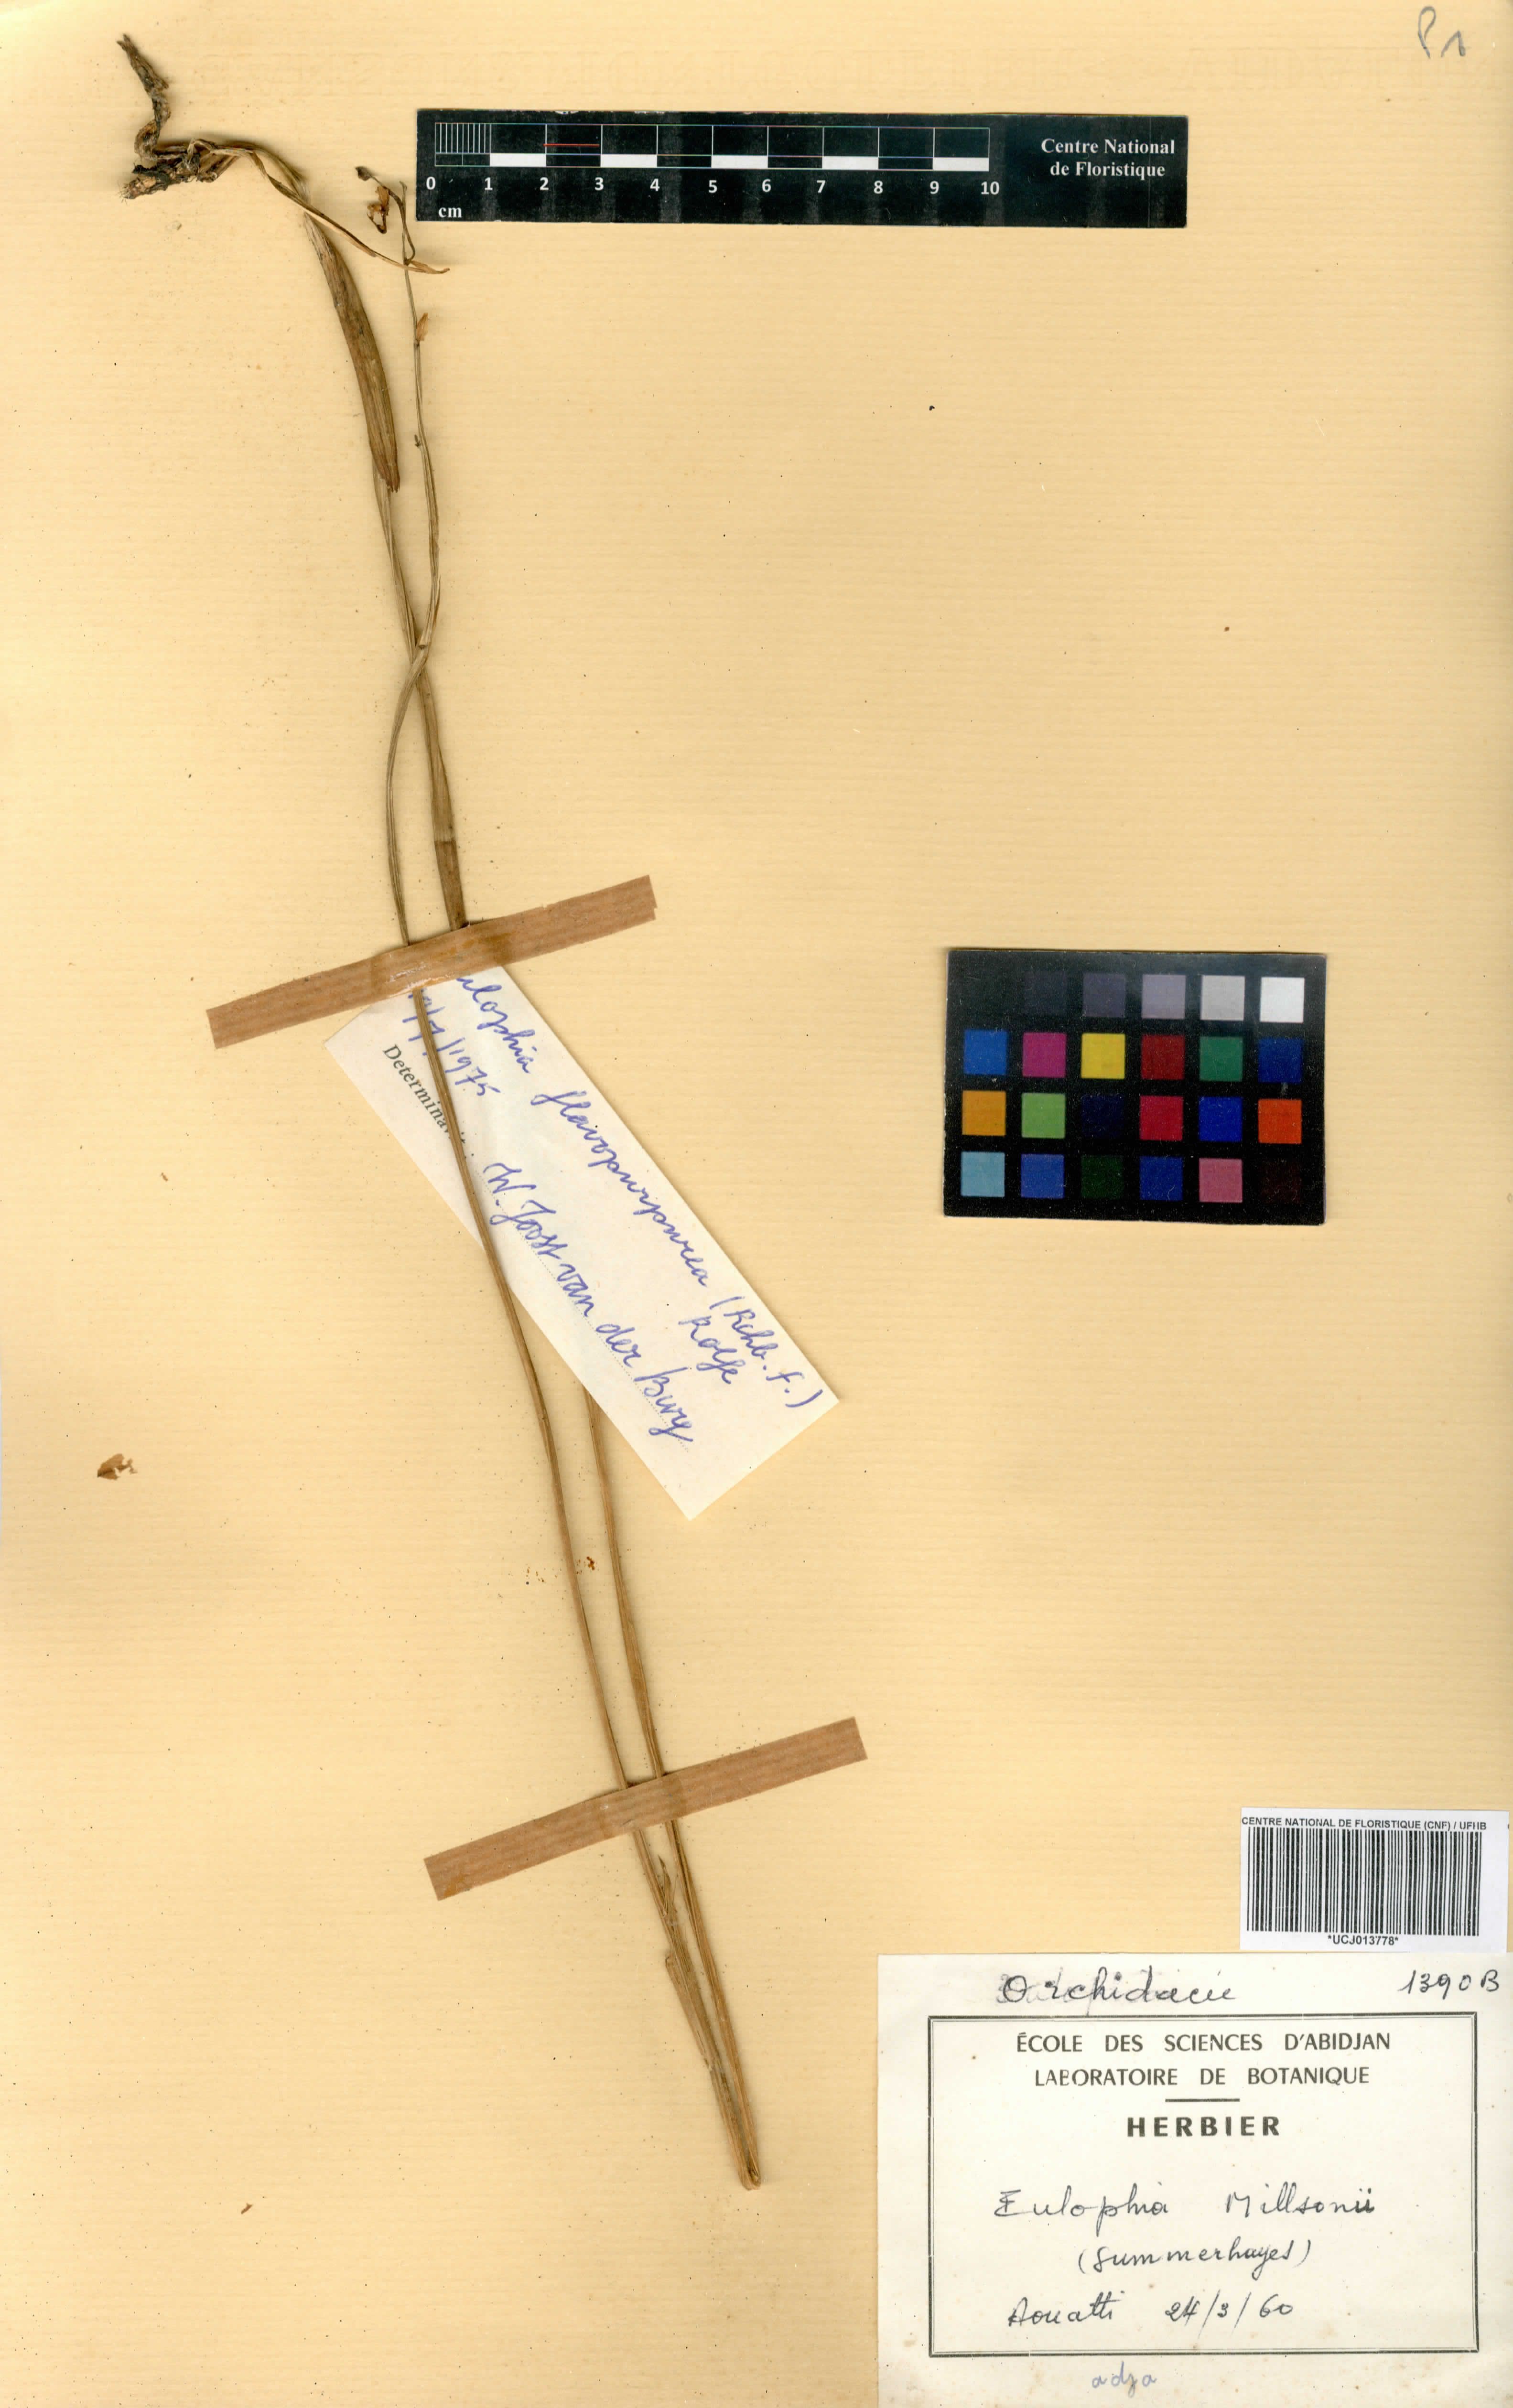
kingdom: Plantae
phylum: Tracheophyta
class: Liliopsida
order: Asparagales
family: Orchidaceae
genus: Eulophia
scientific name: Eulophia milnei
